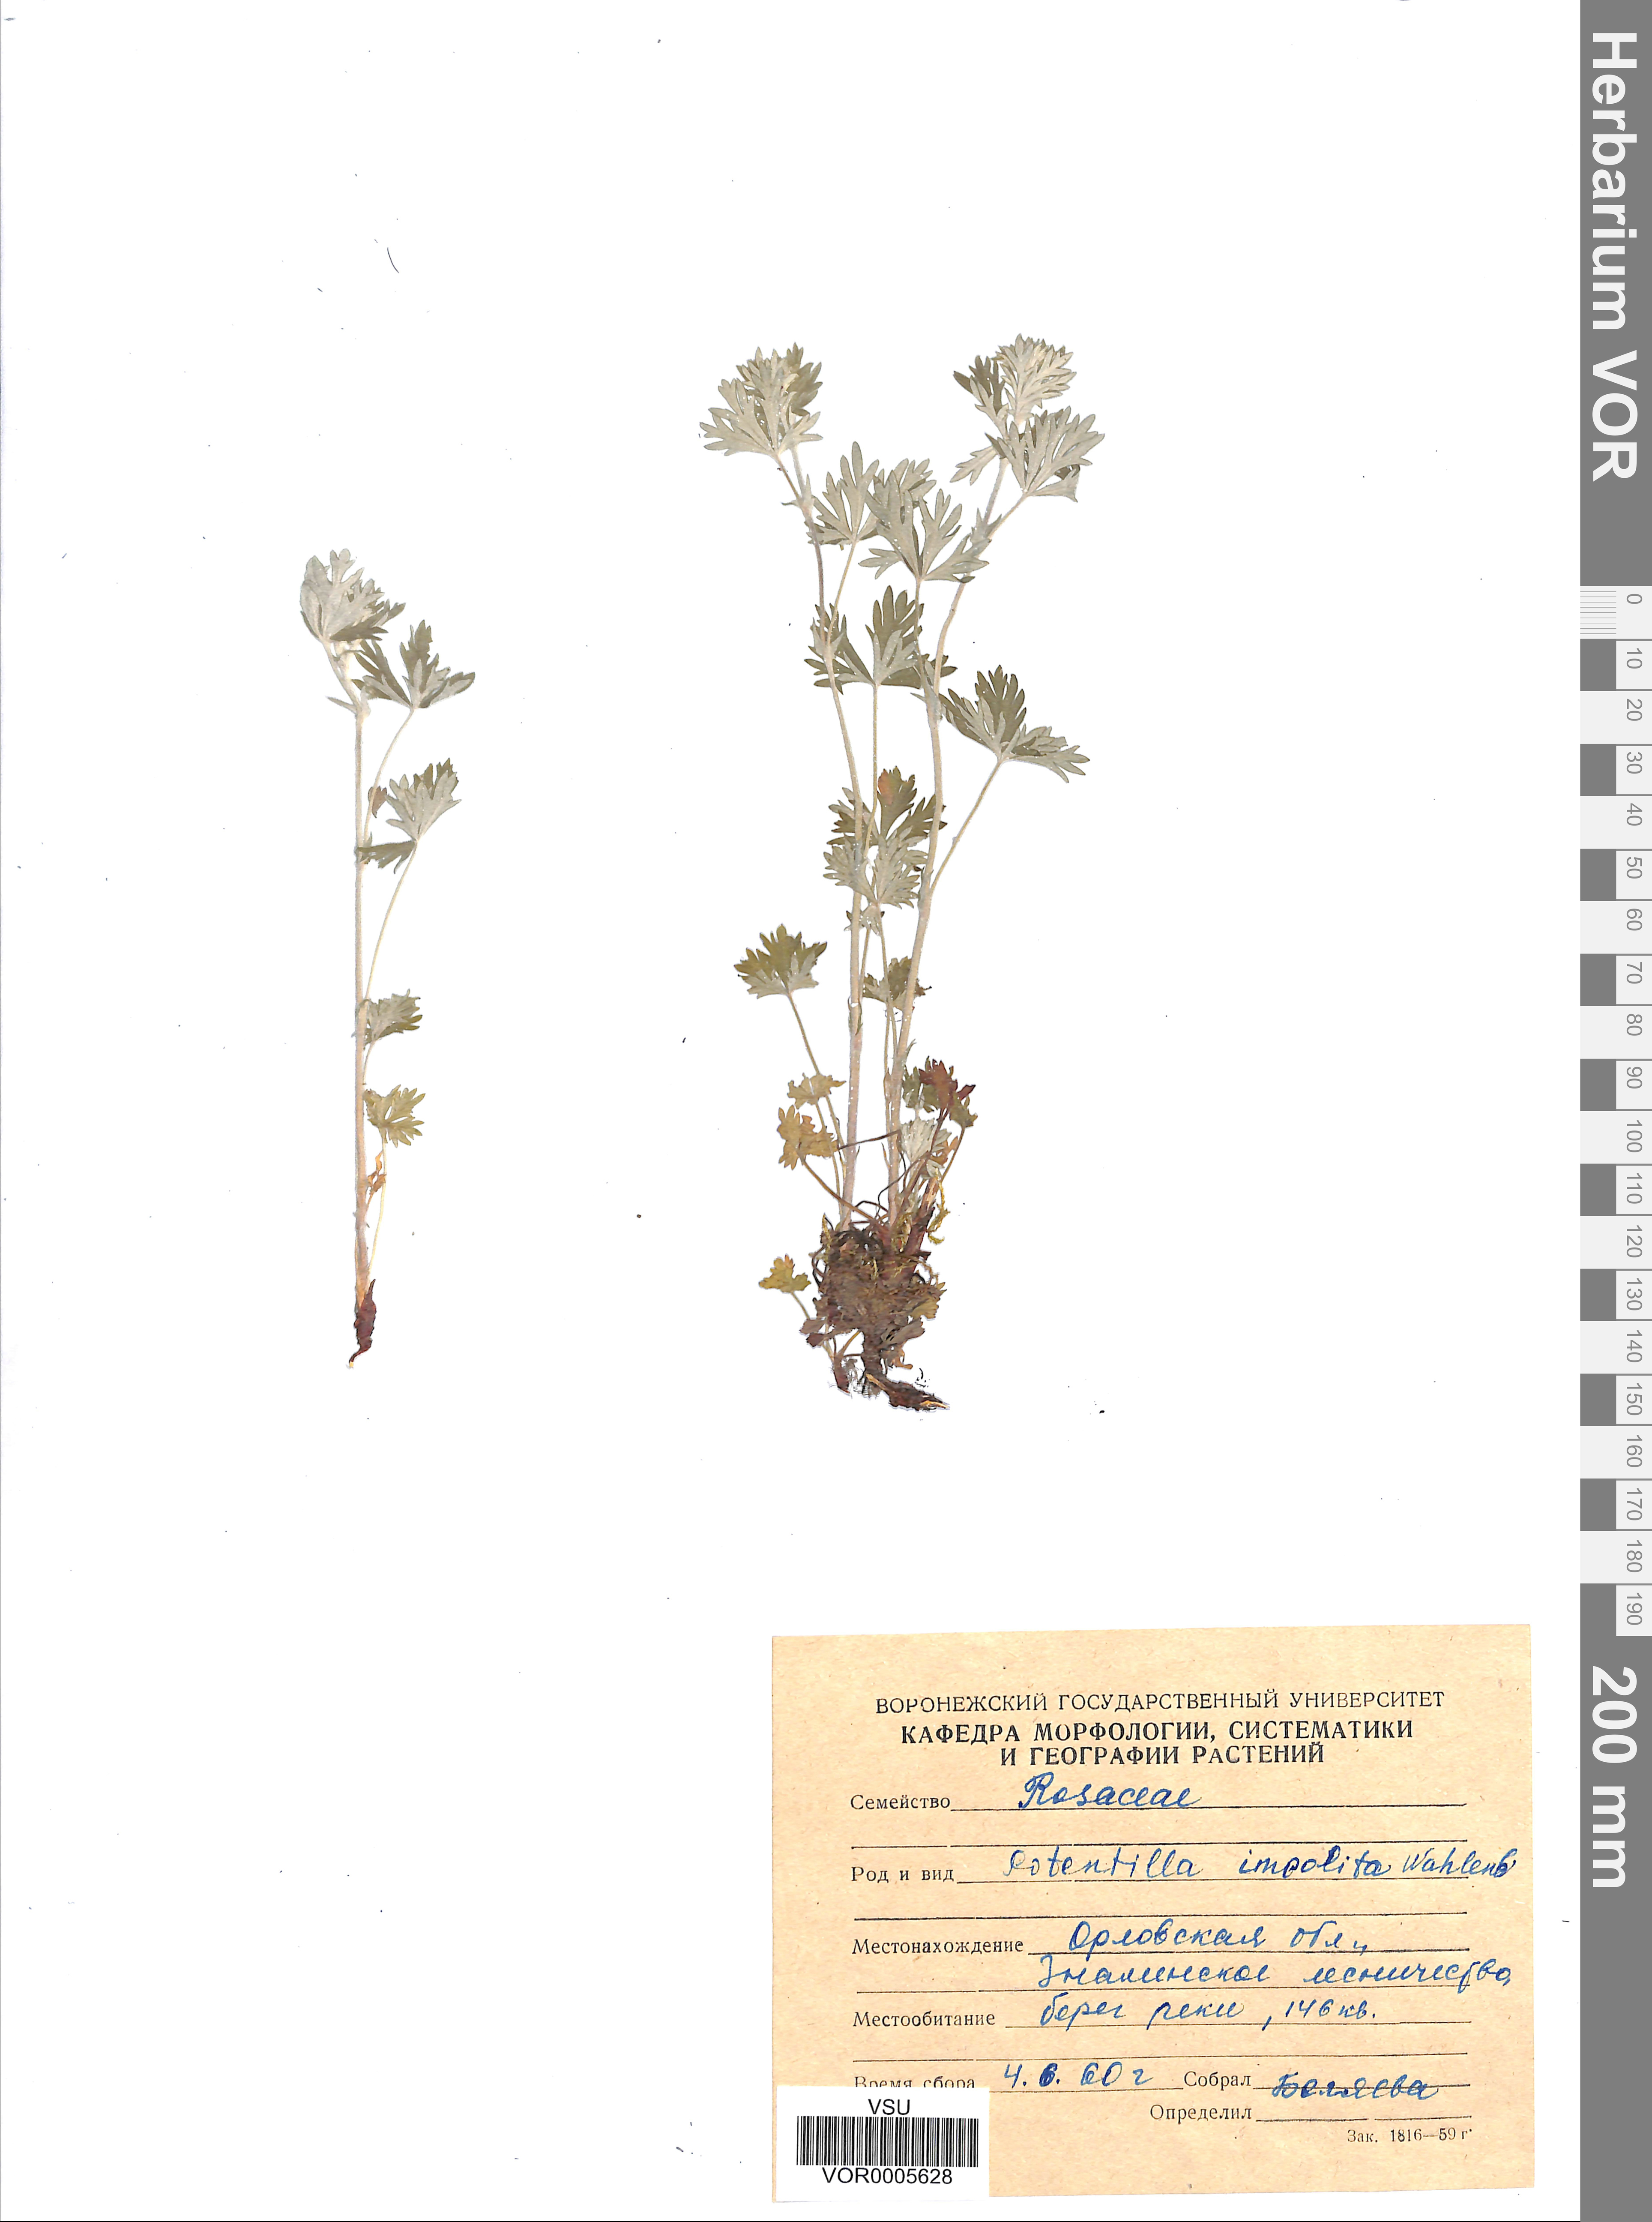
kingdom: Plantae
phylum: Tracheophyta
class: Magnoliopsida
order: Rosales
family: Rosaceae
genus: Potentilla
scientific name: Potentilla inclinata
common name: Grey cinquefoil
